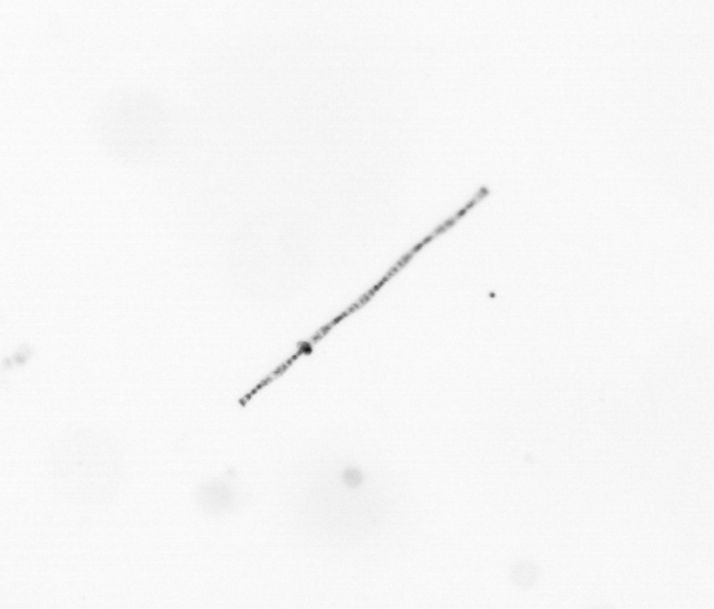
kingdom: Chromista
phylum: Ochrophyta
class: Bacillariophyceae
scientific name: Bacillariophyceae
